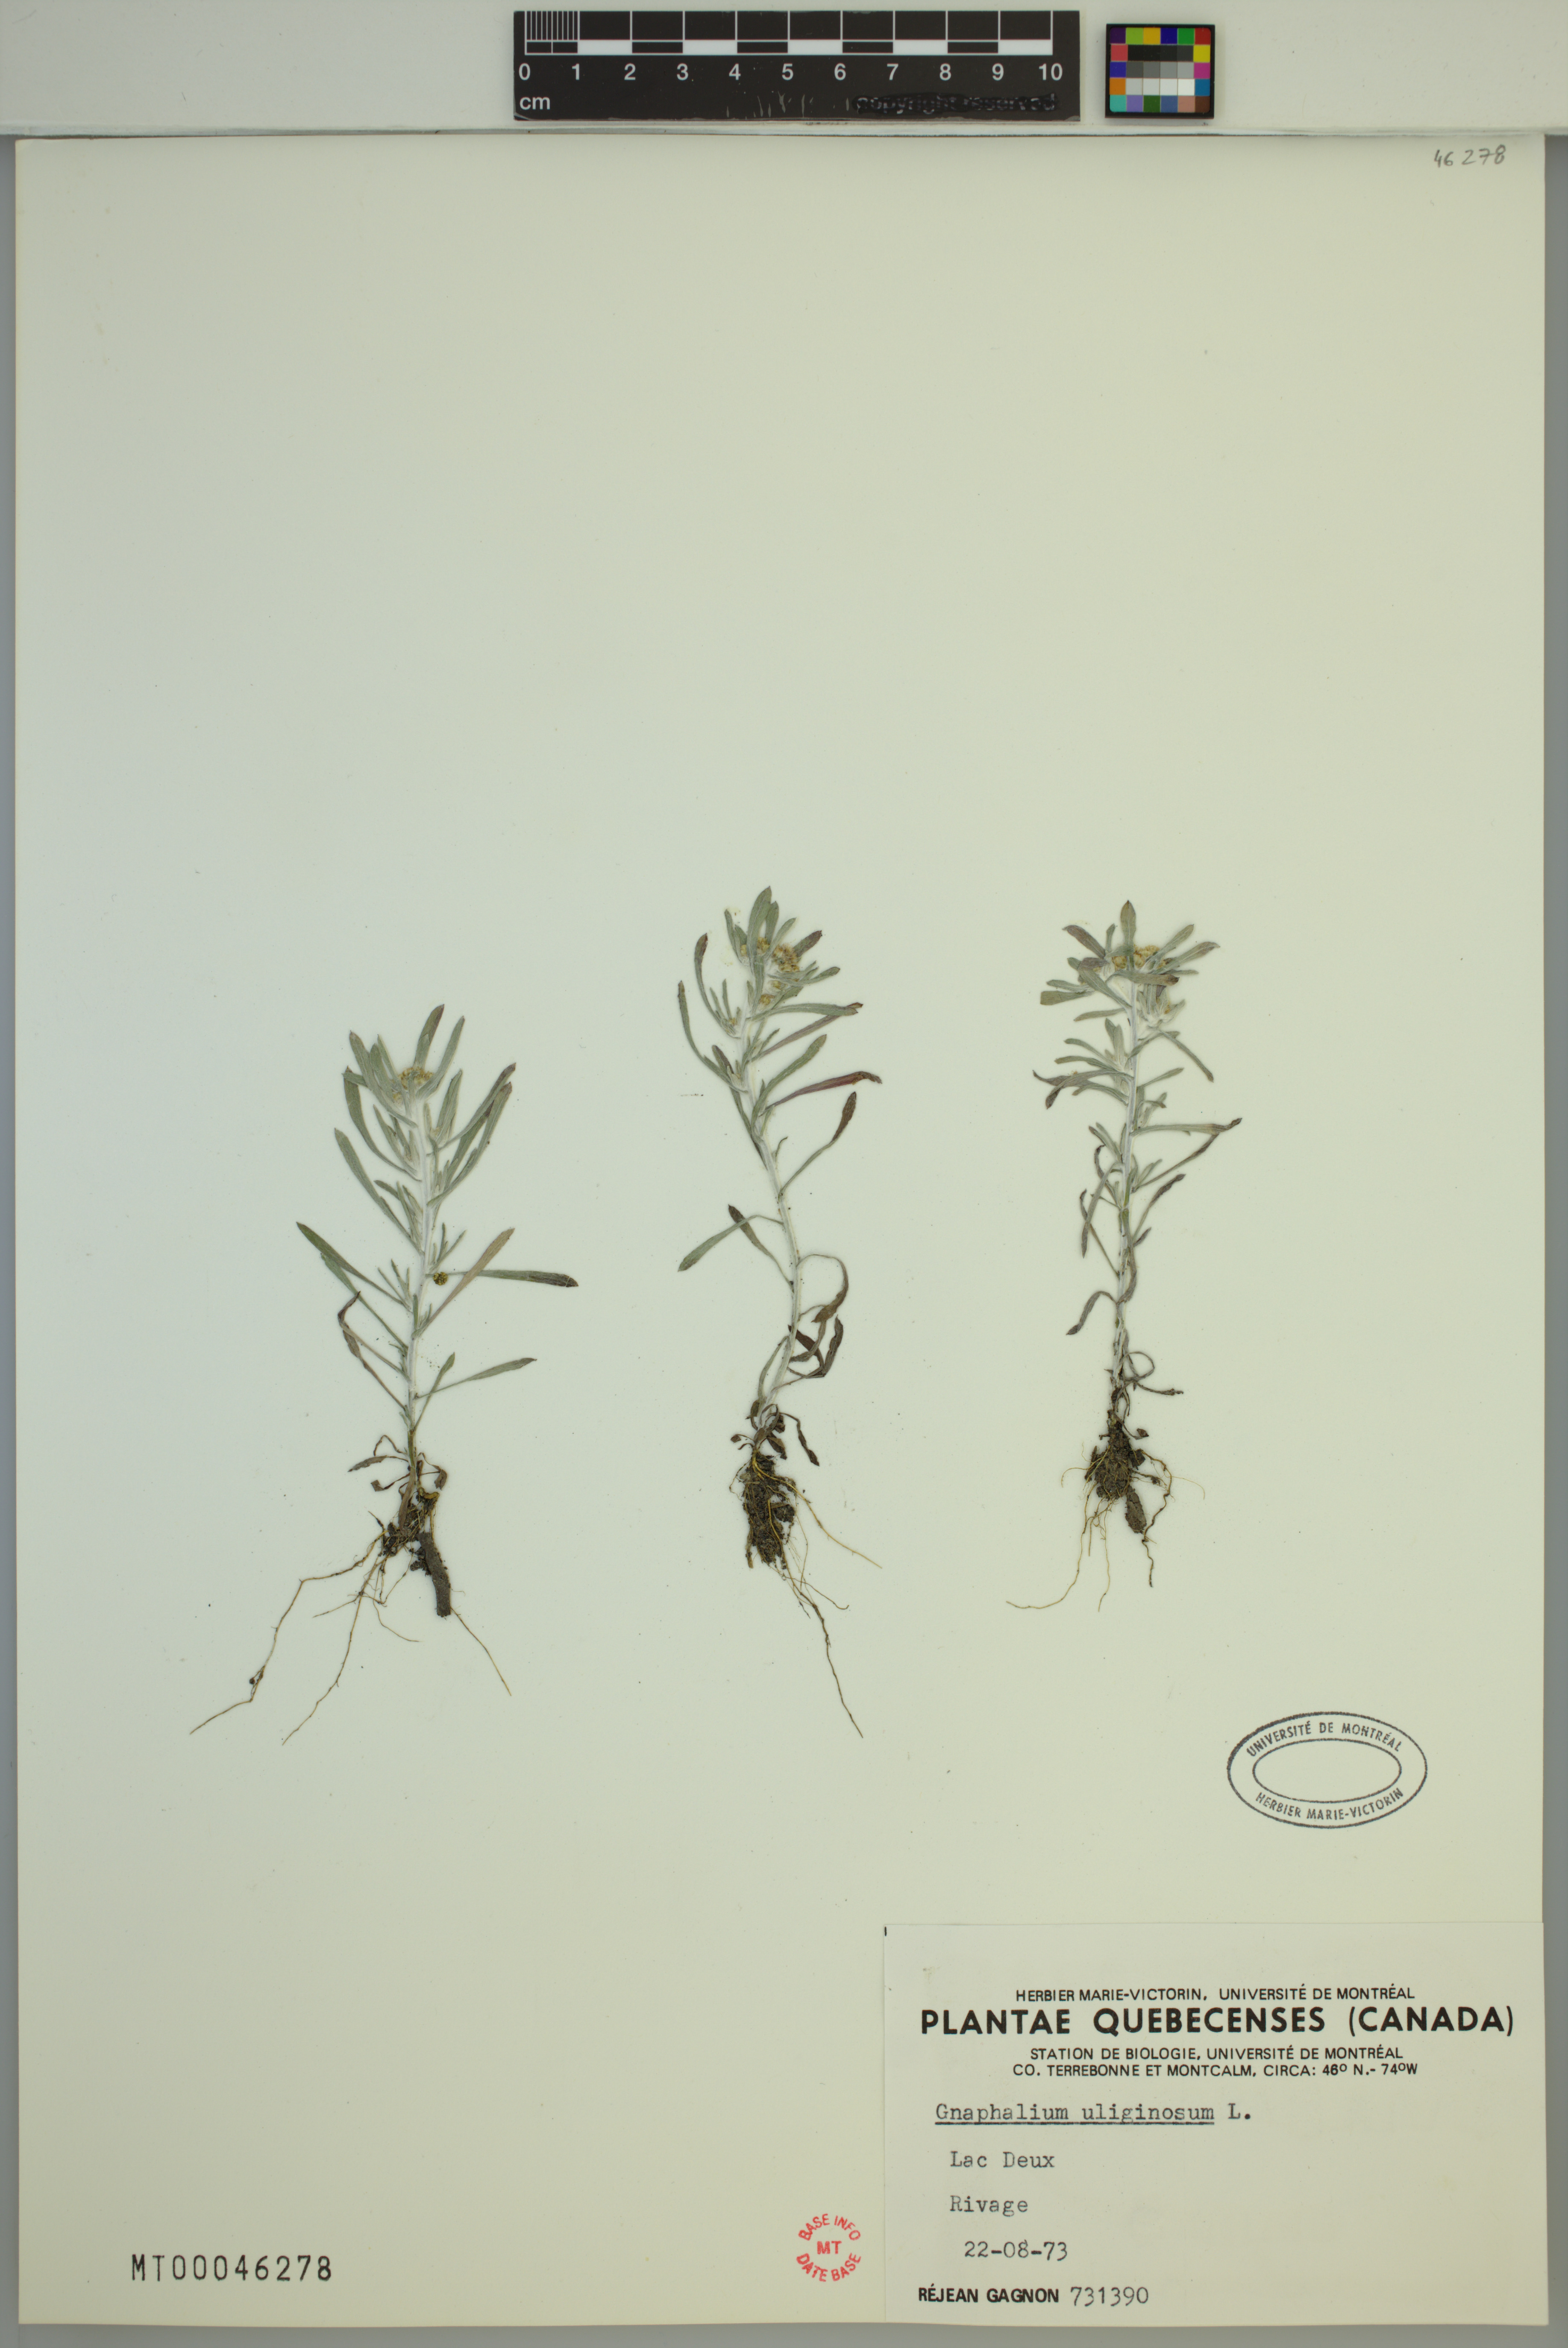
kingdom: Plantae
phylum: Tracheophyta
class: Magnoliopsida
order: Asterales
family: Asteraceae
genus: Gnaphalium
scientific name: Gnaphalium uliginosum
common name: Marsh cudweed
